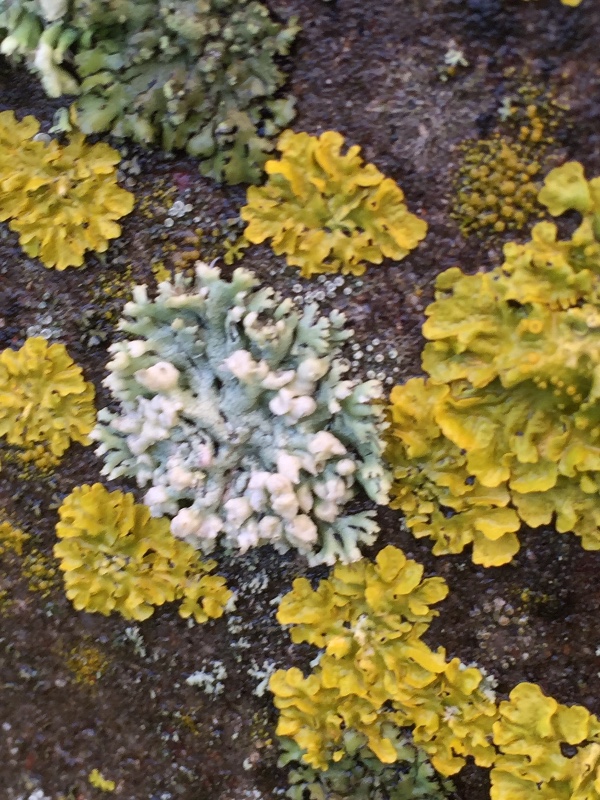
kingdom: Fungi
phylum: Ascomycota
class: Lecanoromycetes
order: Caliciales
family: Physciaceae
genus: Physcia
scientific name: Physcia adscendens
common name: hætte-rosetlav
